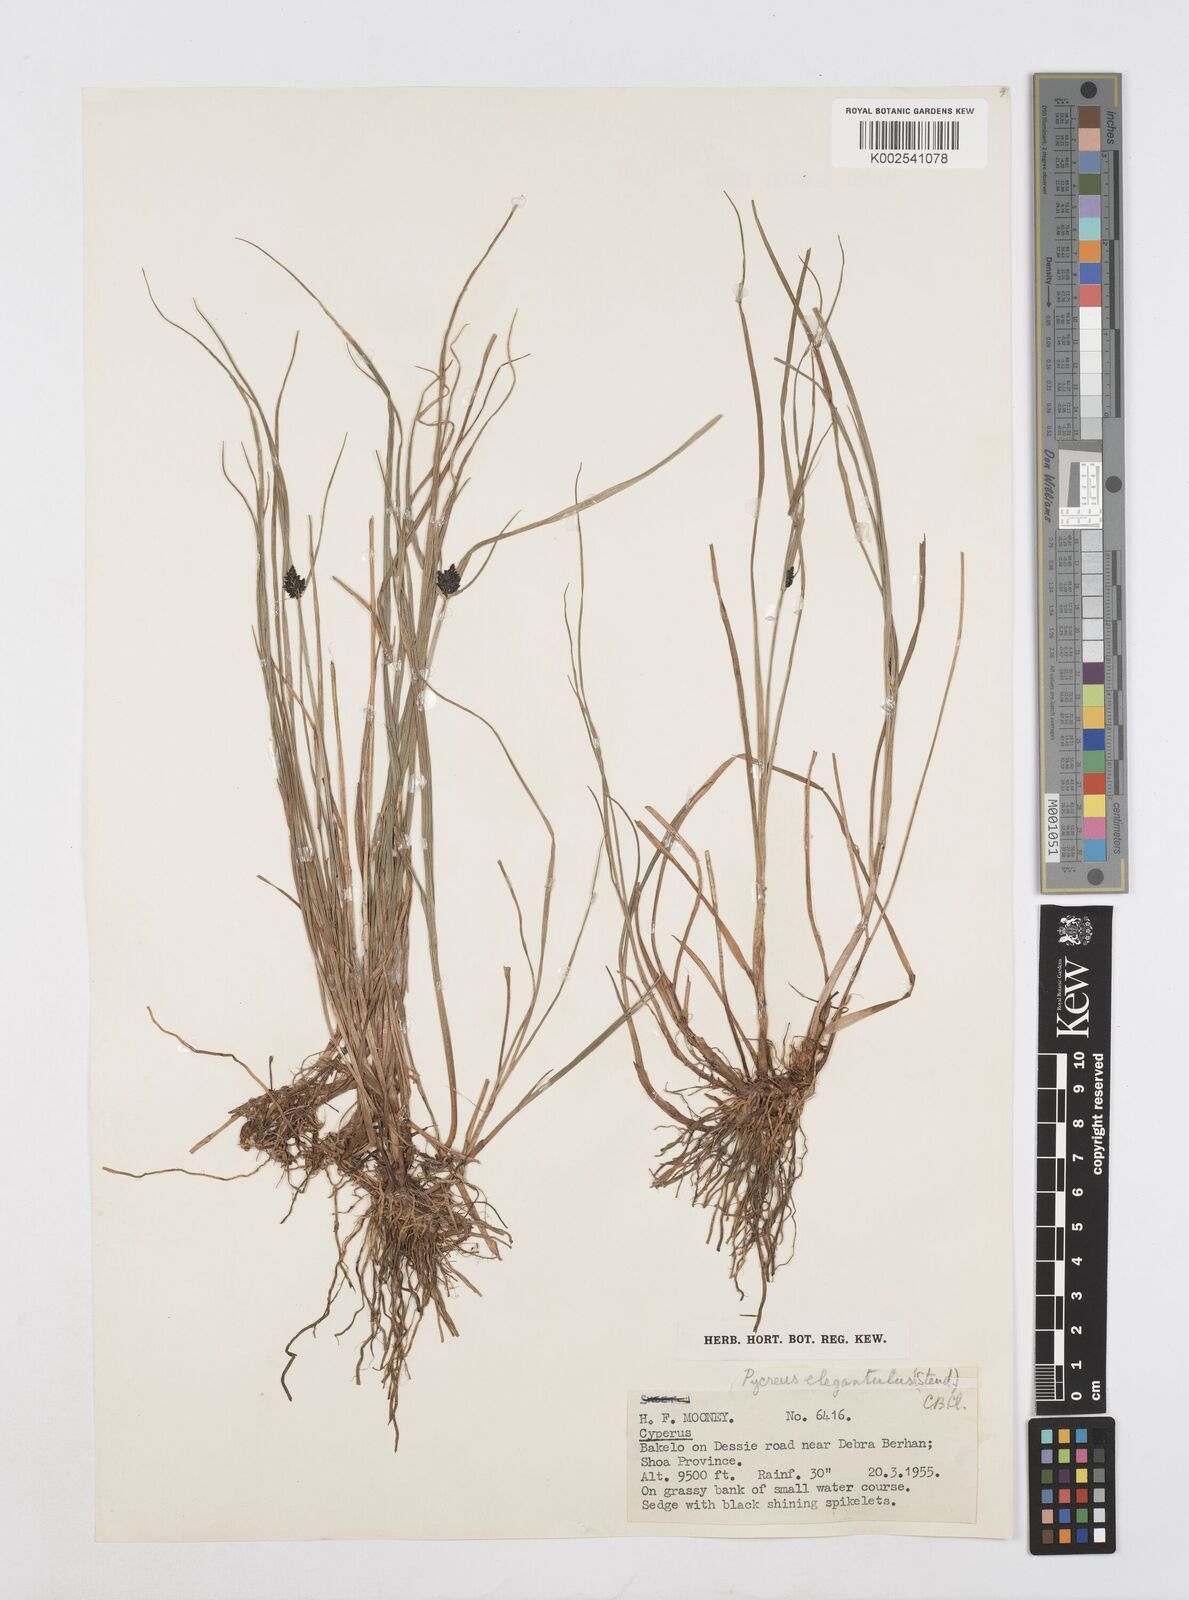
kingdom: Plantae
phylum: Tracheophyta
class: Liliopsida
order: Poales
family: Cyperaceae
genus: Cyperus
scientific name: Cyperus elegantulus
